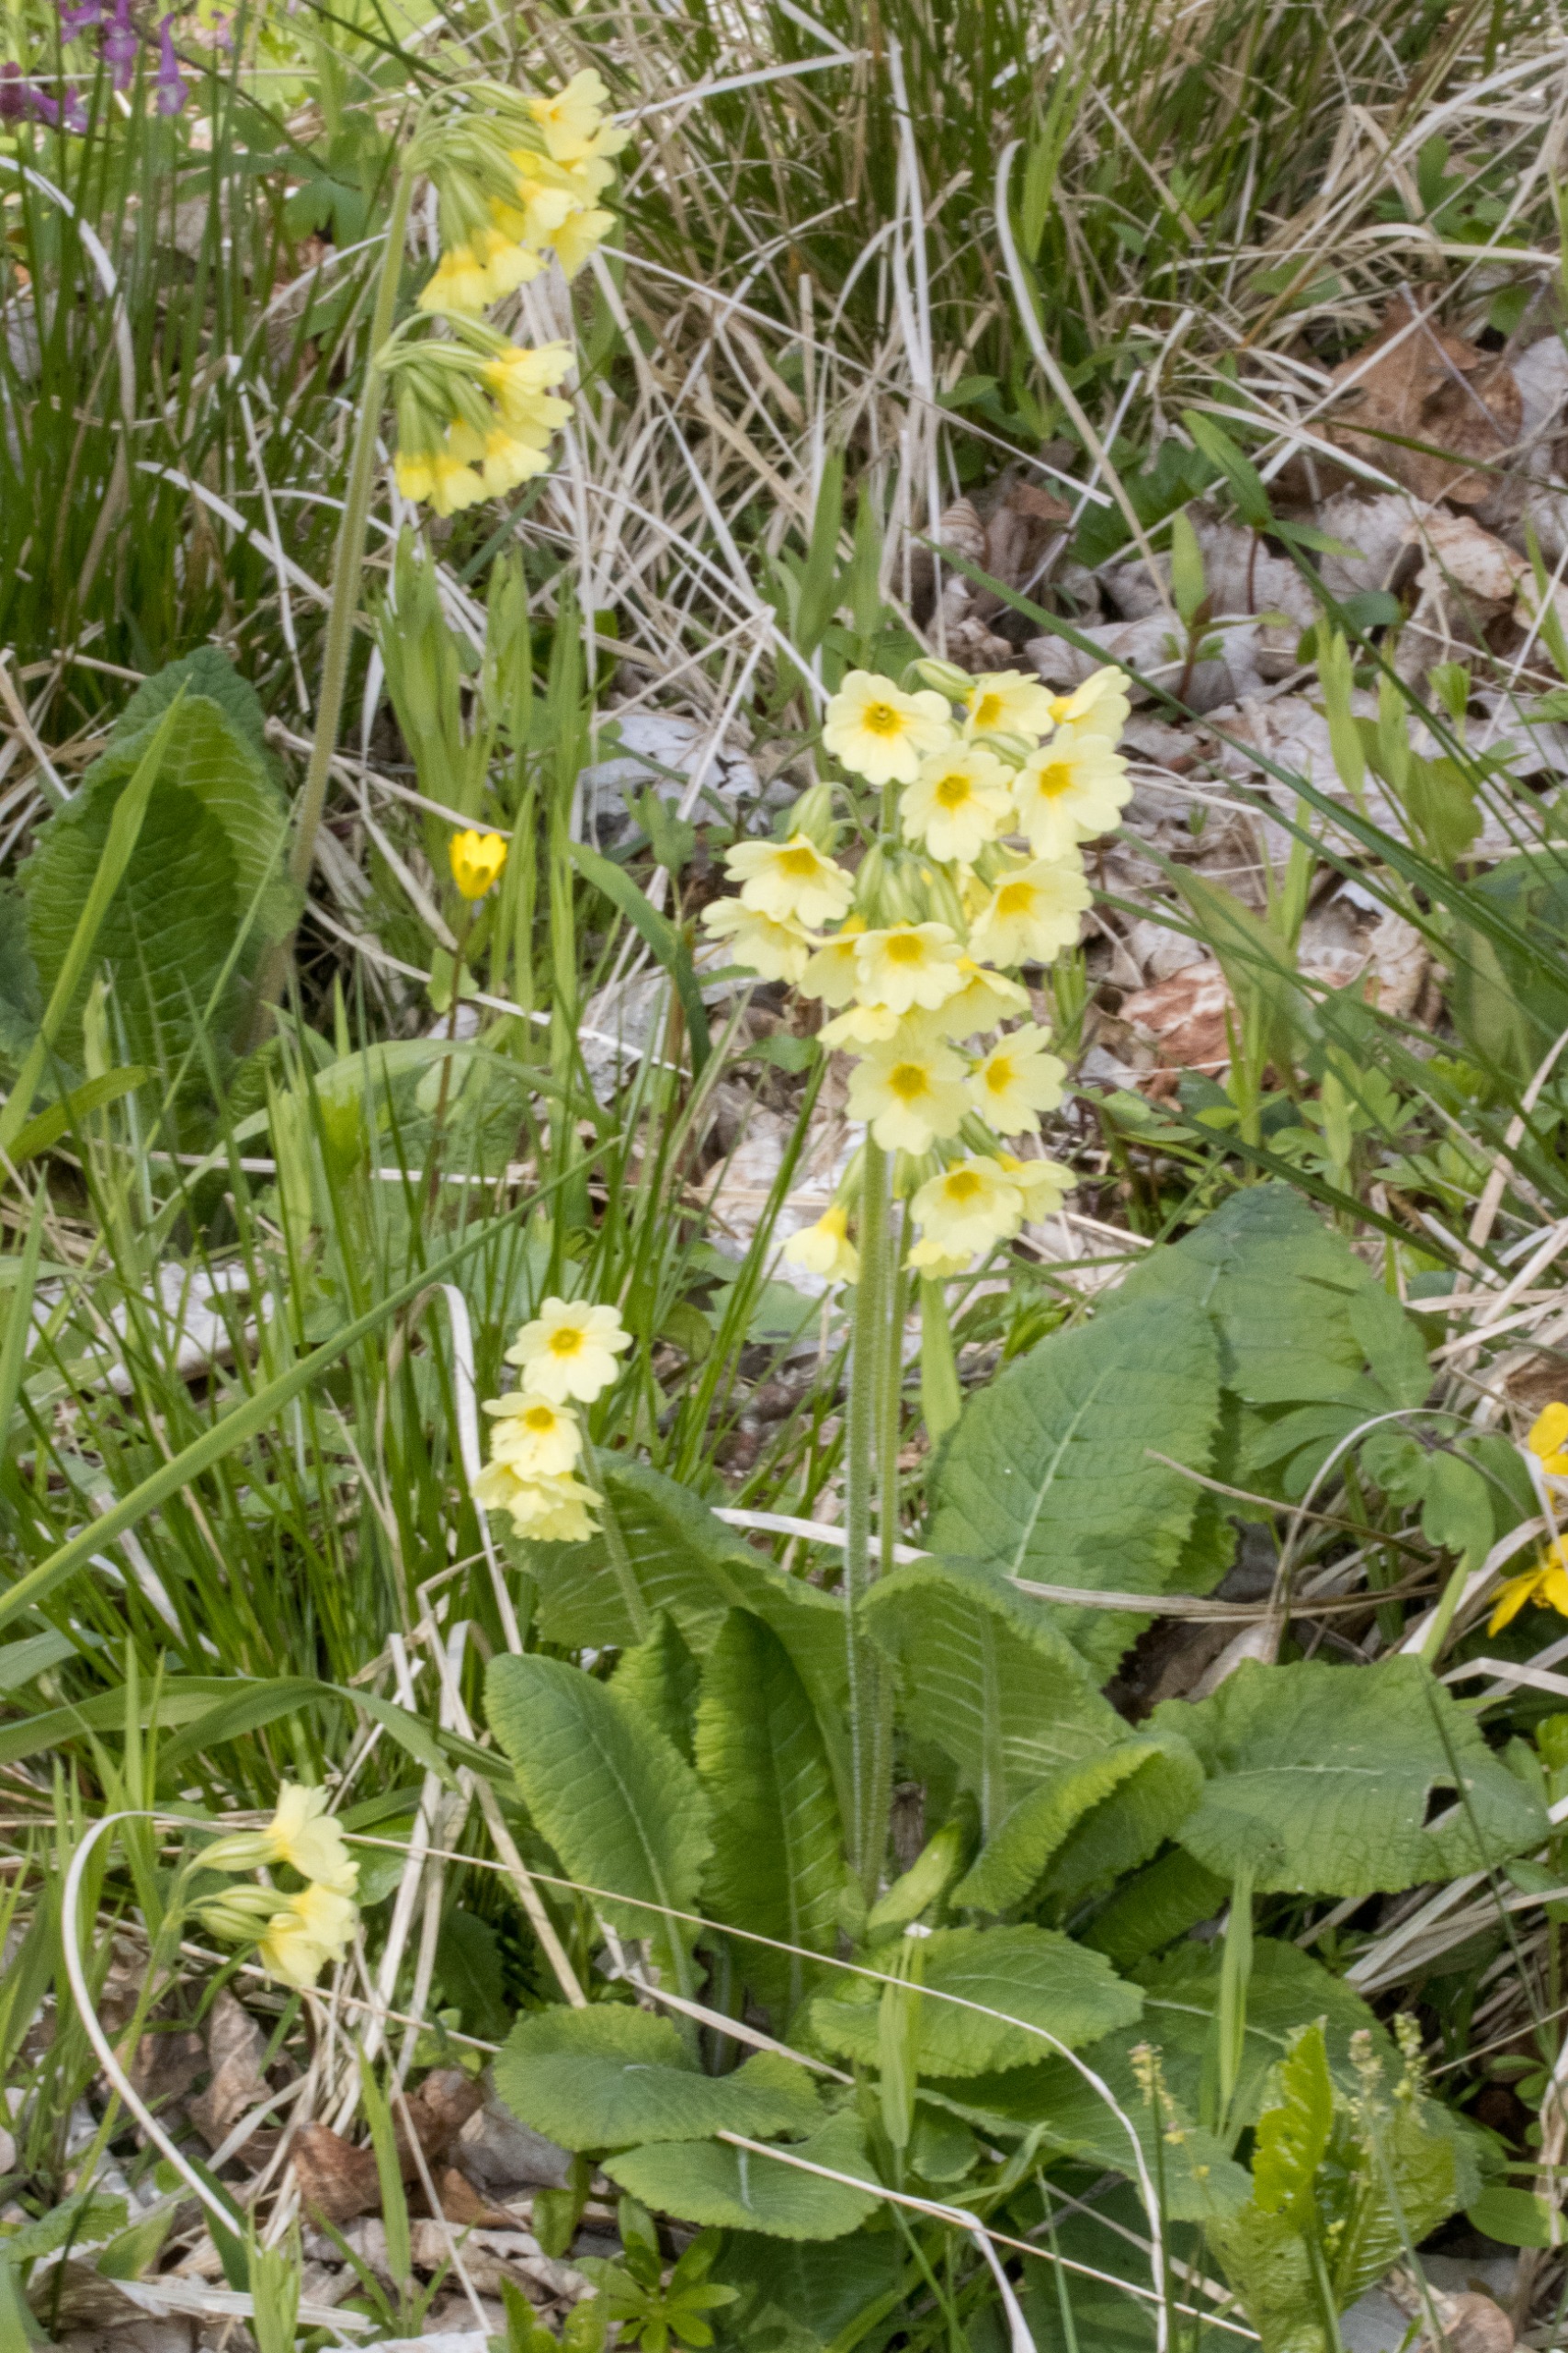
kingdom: Plantae
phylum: Tracheophyta
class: Magnoliopsida
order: Ericales
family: Primulaceae
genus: Primula
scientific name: Primula elatior
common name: Fladkravet kodriver
